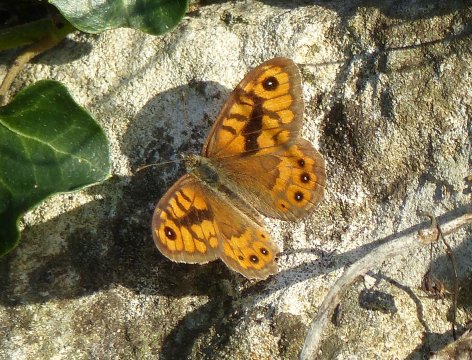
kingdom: Animalia
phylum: Arthropoda
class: Insecta
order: Lepidoptera
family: Nymphalidae
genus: Pararge
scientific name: Pararge Lasiommata megera
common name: Wall
